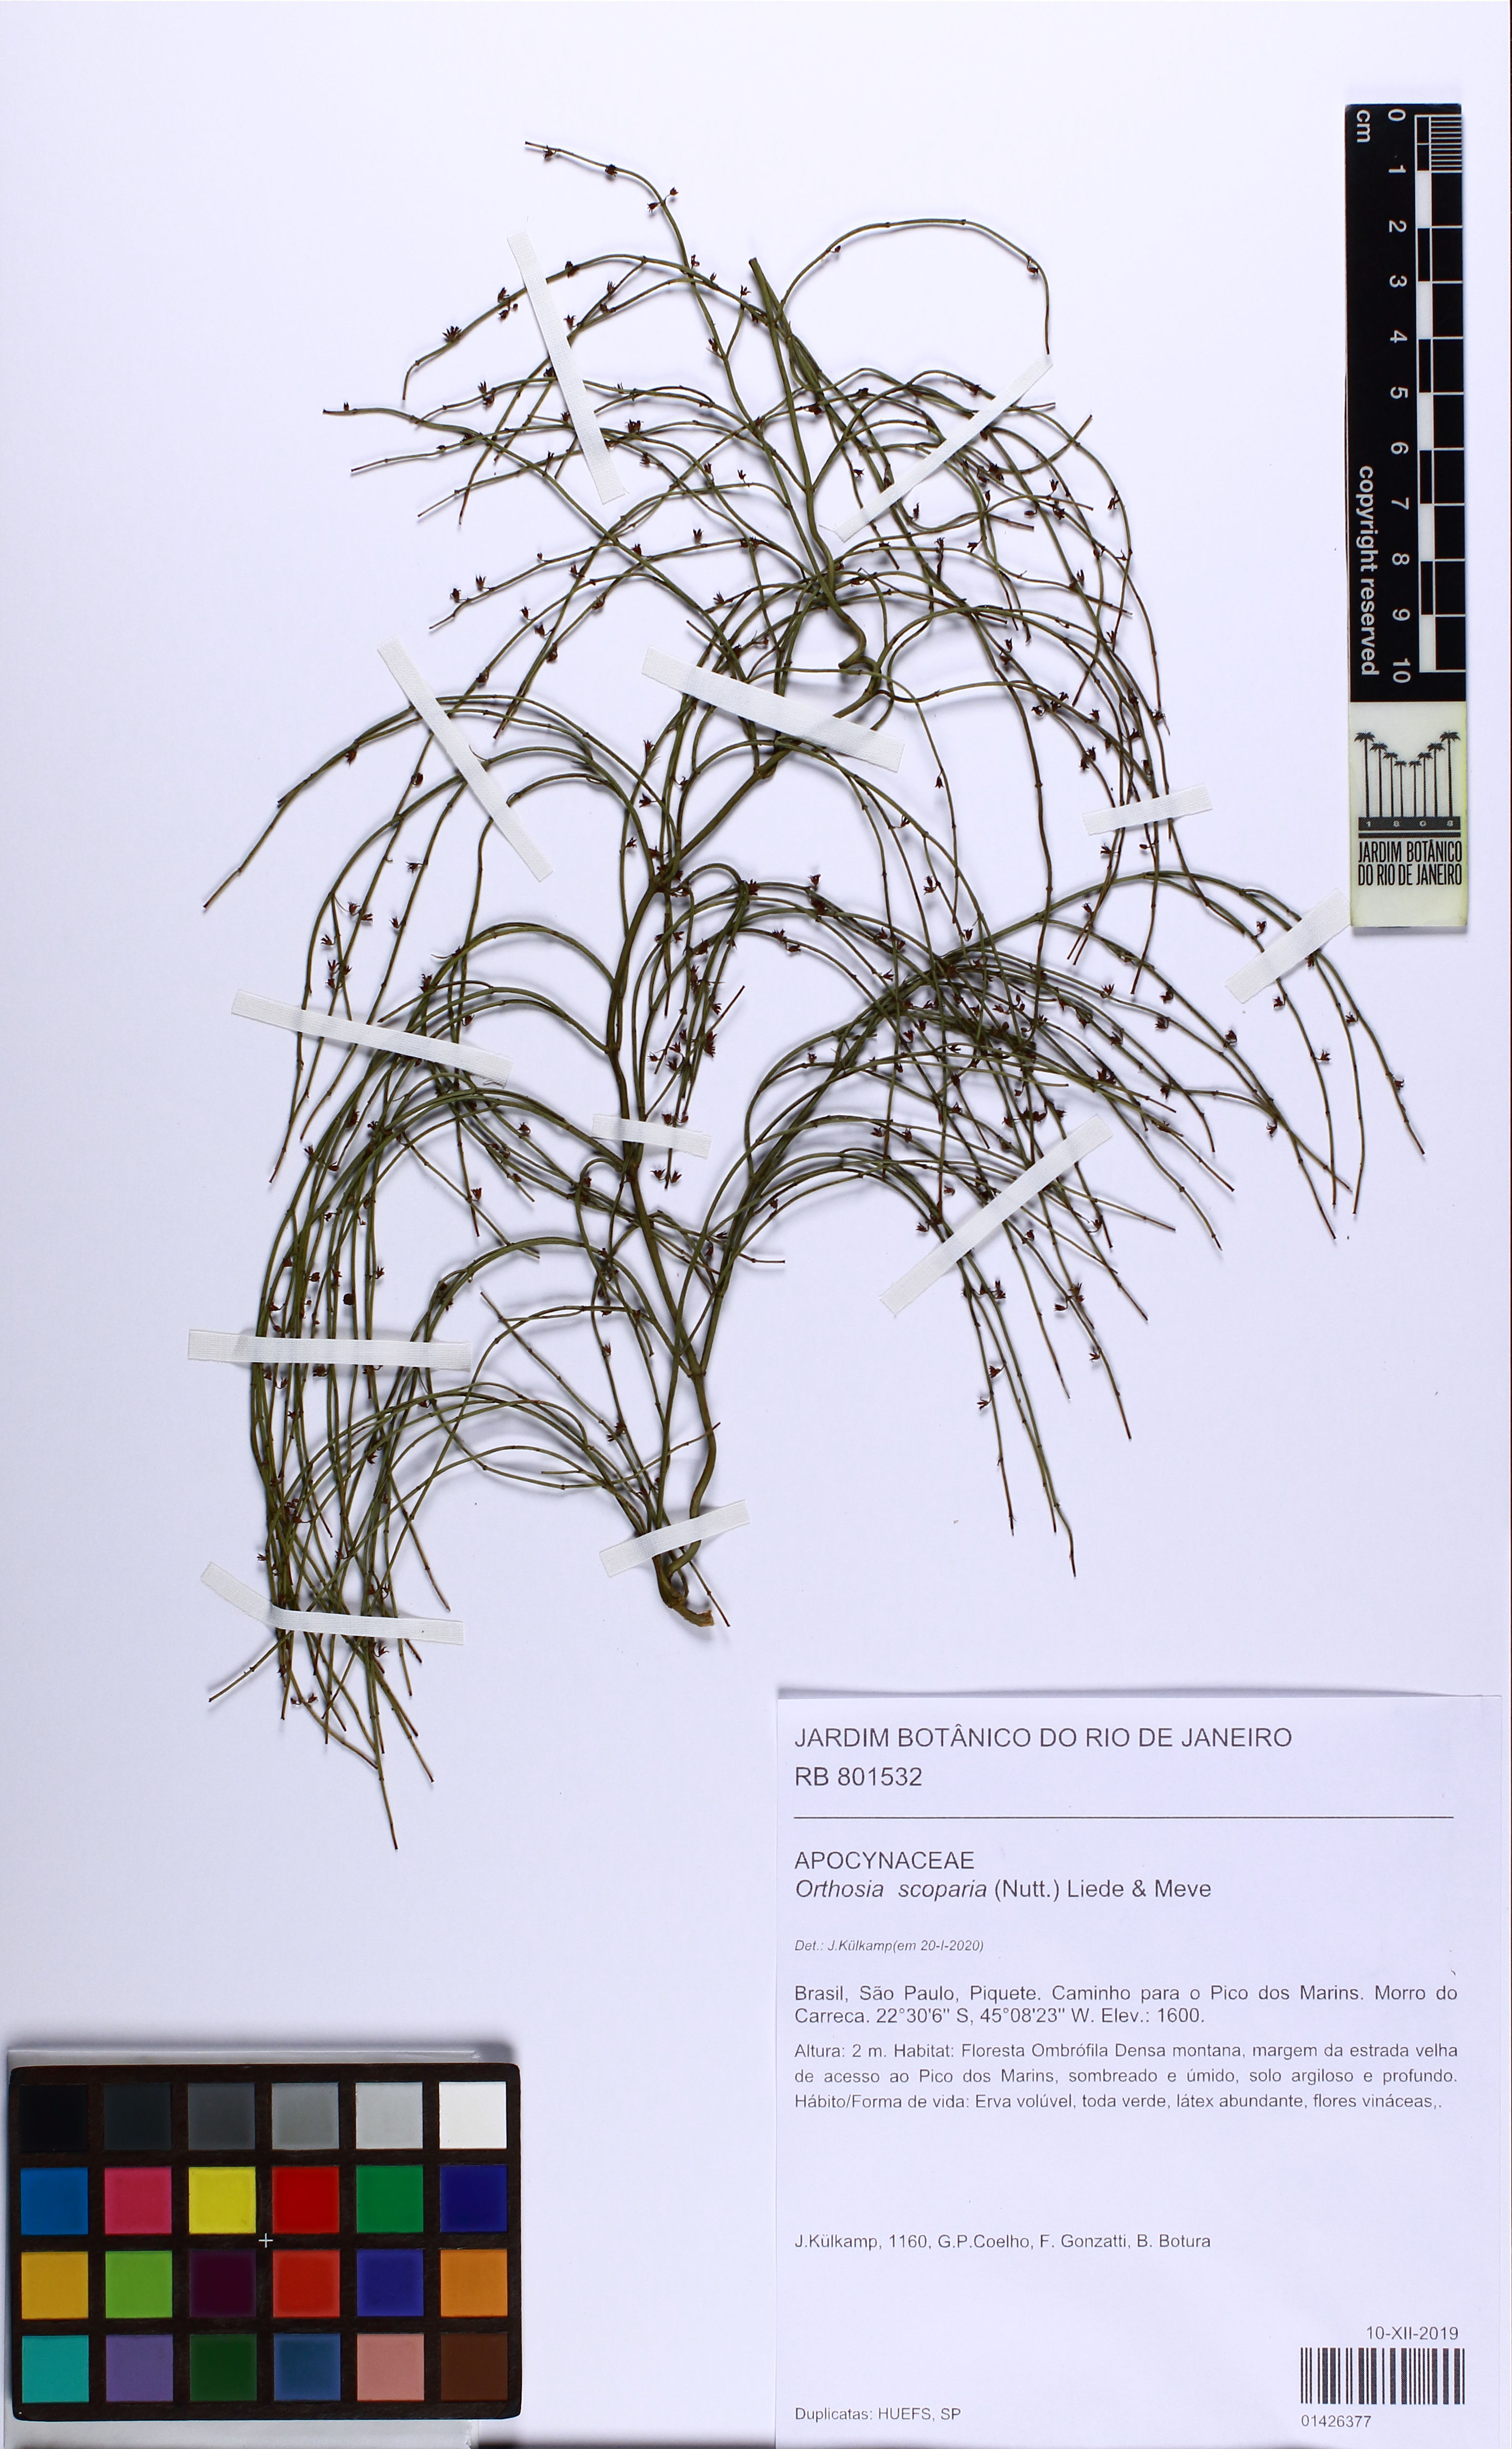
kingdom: Plantae
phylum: Tracheophyta
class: Magnoliopsida
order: Gentianales
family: Apocynaceae
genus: Orthosia
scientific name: Orthosia scoparia
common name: Leafless swallow-wort
